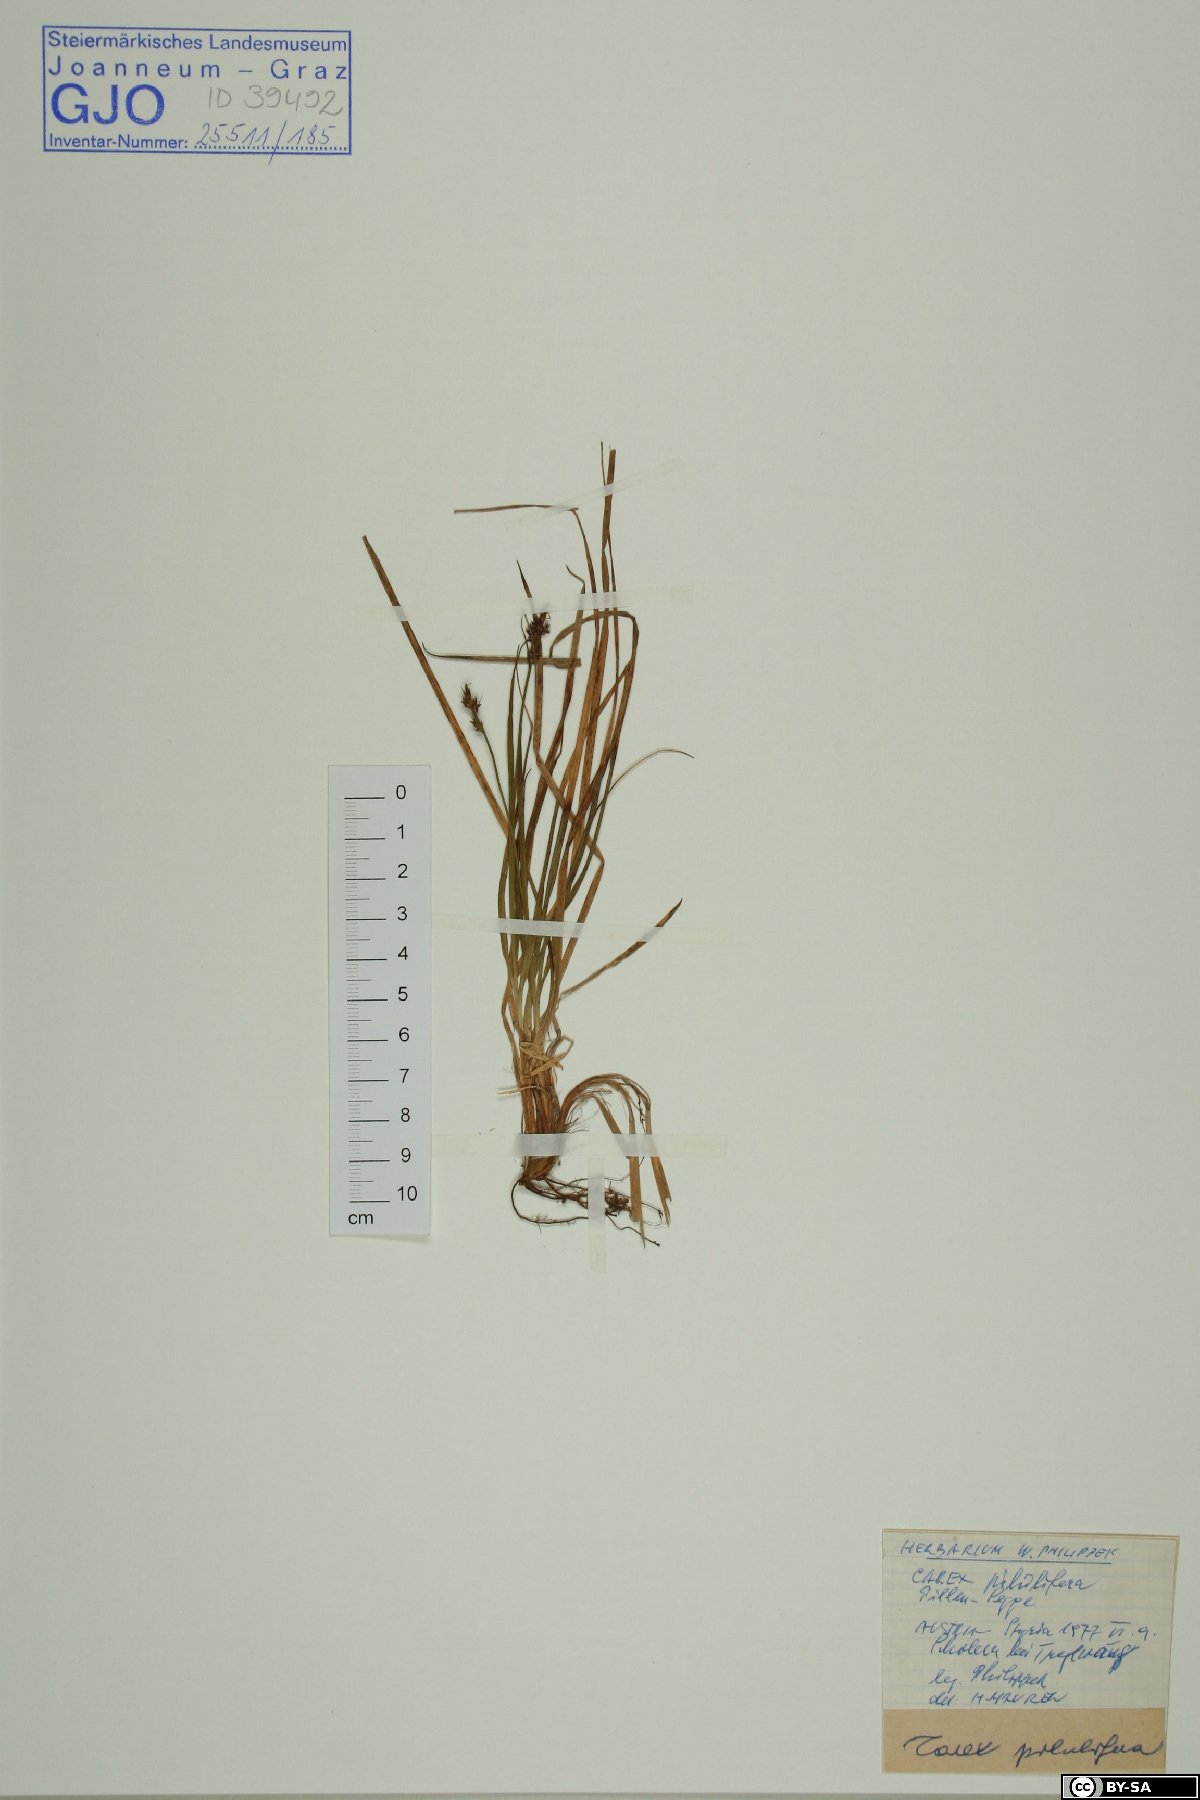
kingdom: Plantae
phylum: Tracheophyta
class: Liliopsida
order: Poales
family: Cyperaceae
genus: Carex
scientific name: Carex pilulifera
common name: Pill sedge
